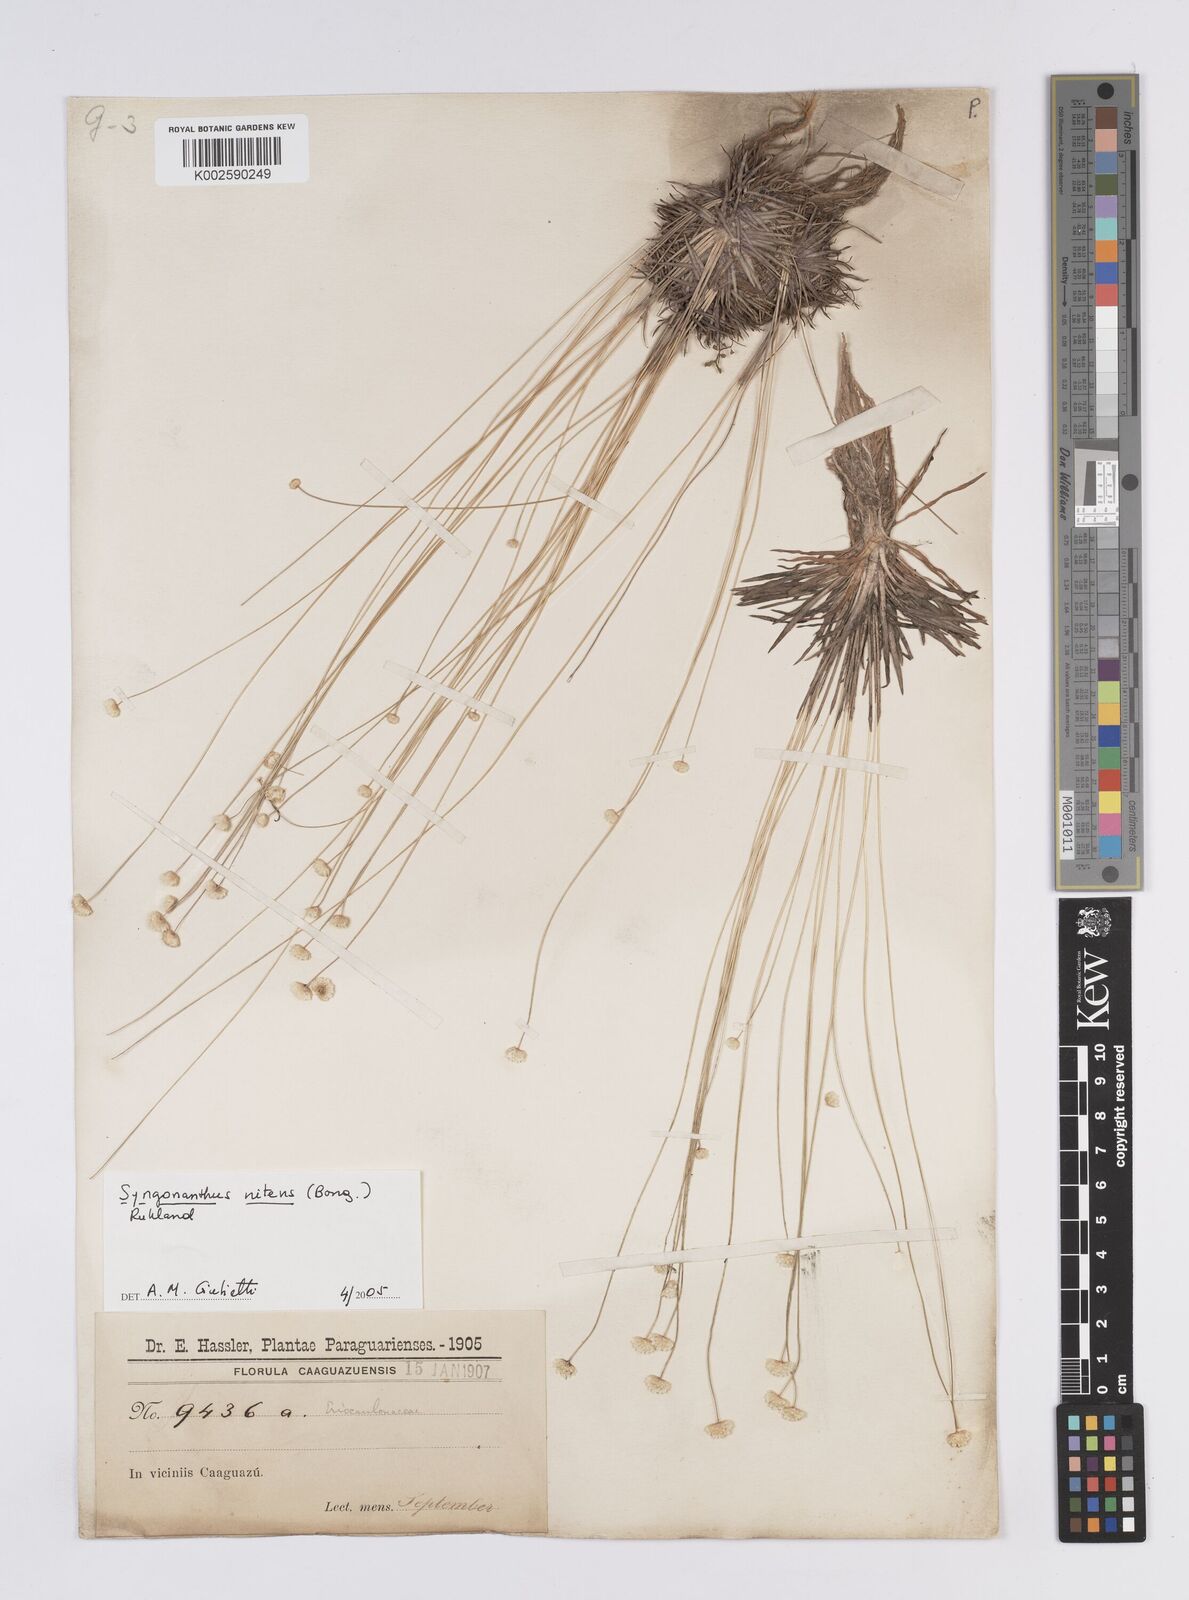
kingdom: Plantae
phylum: Tracheophyta
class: Liliopsida
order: Poales
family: Eriocaulaceae
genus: Syngonanthus
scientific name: Syngonanthus nitens
